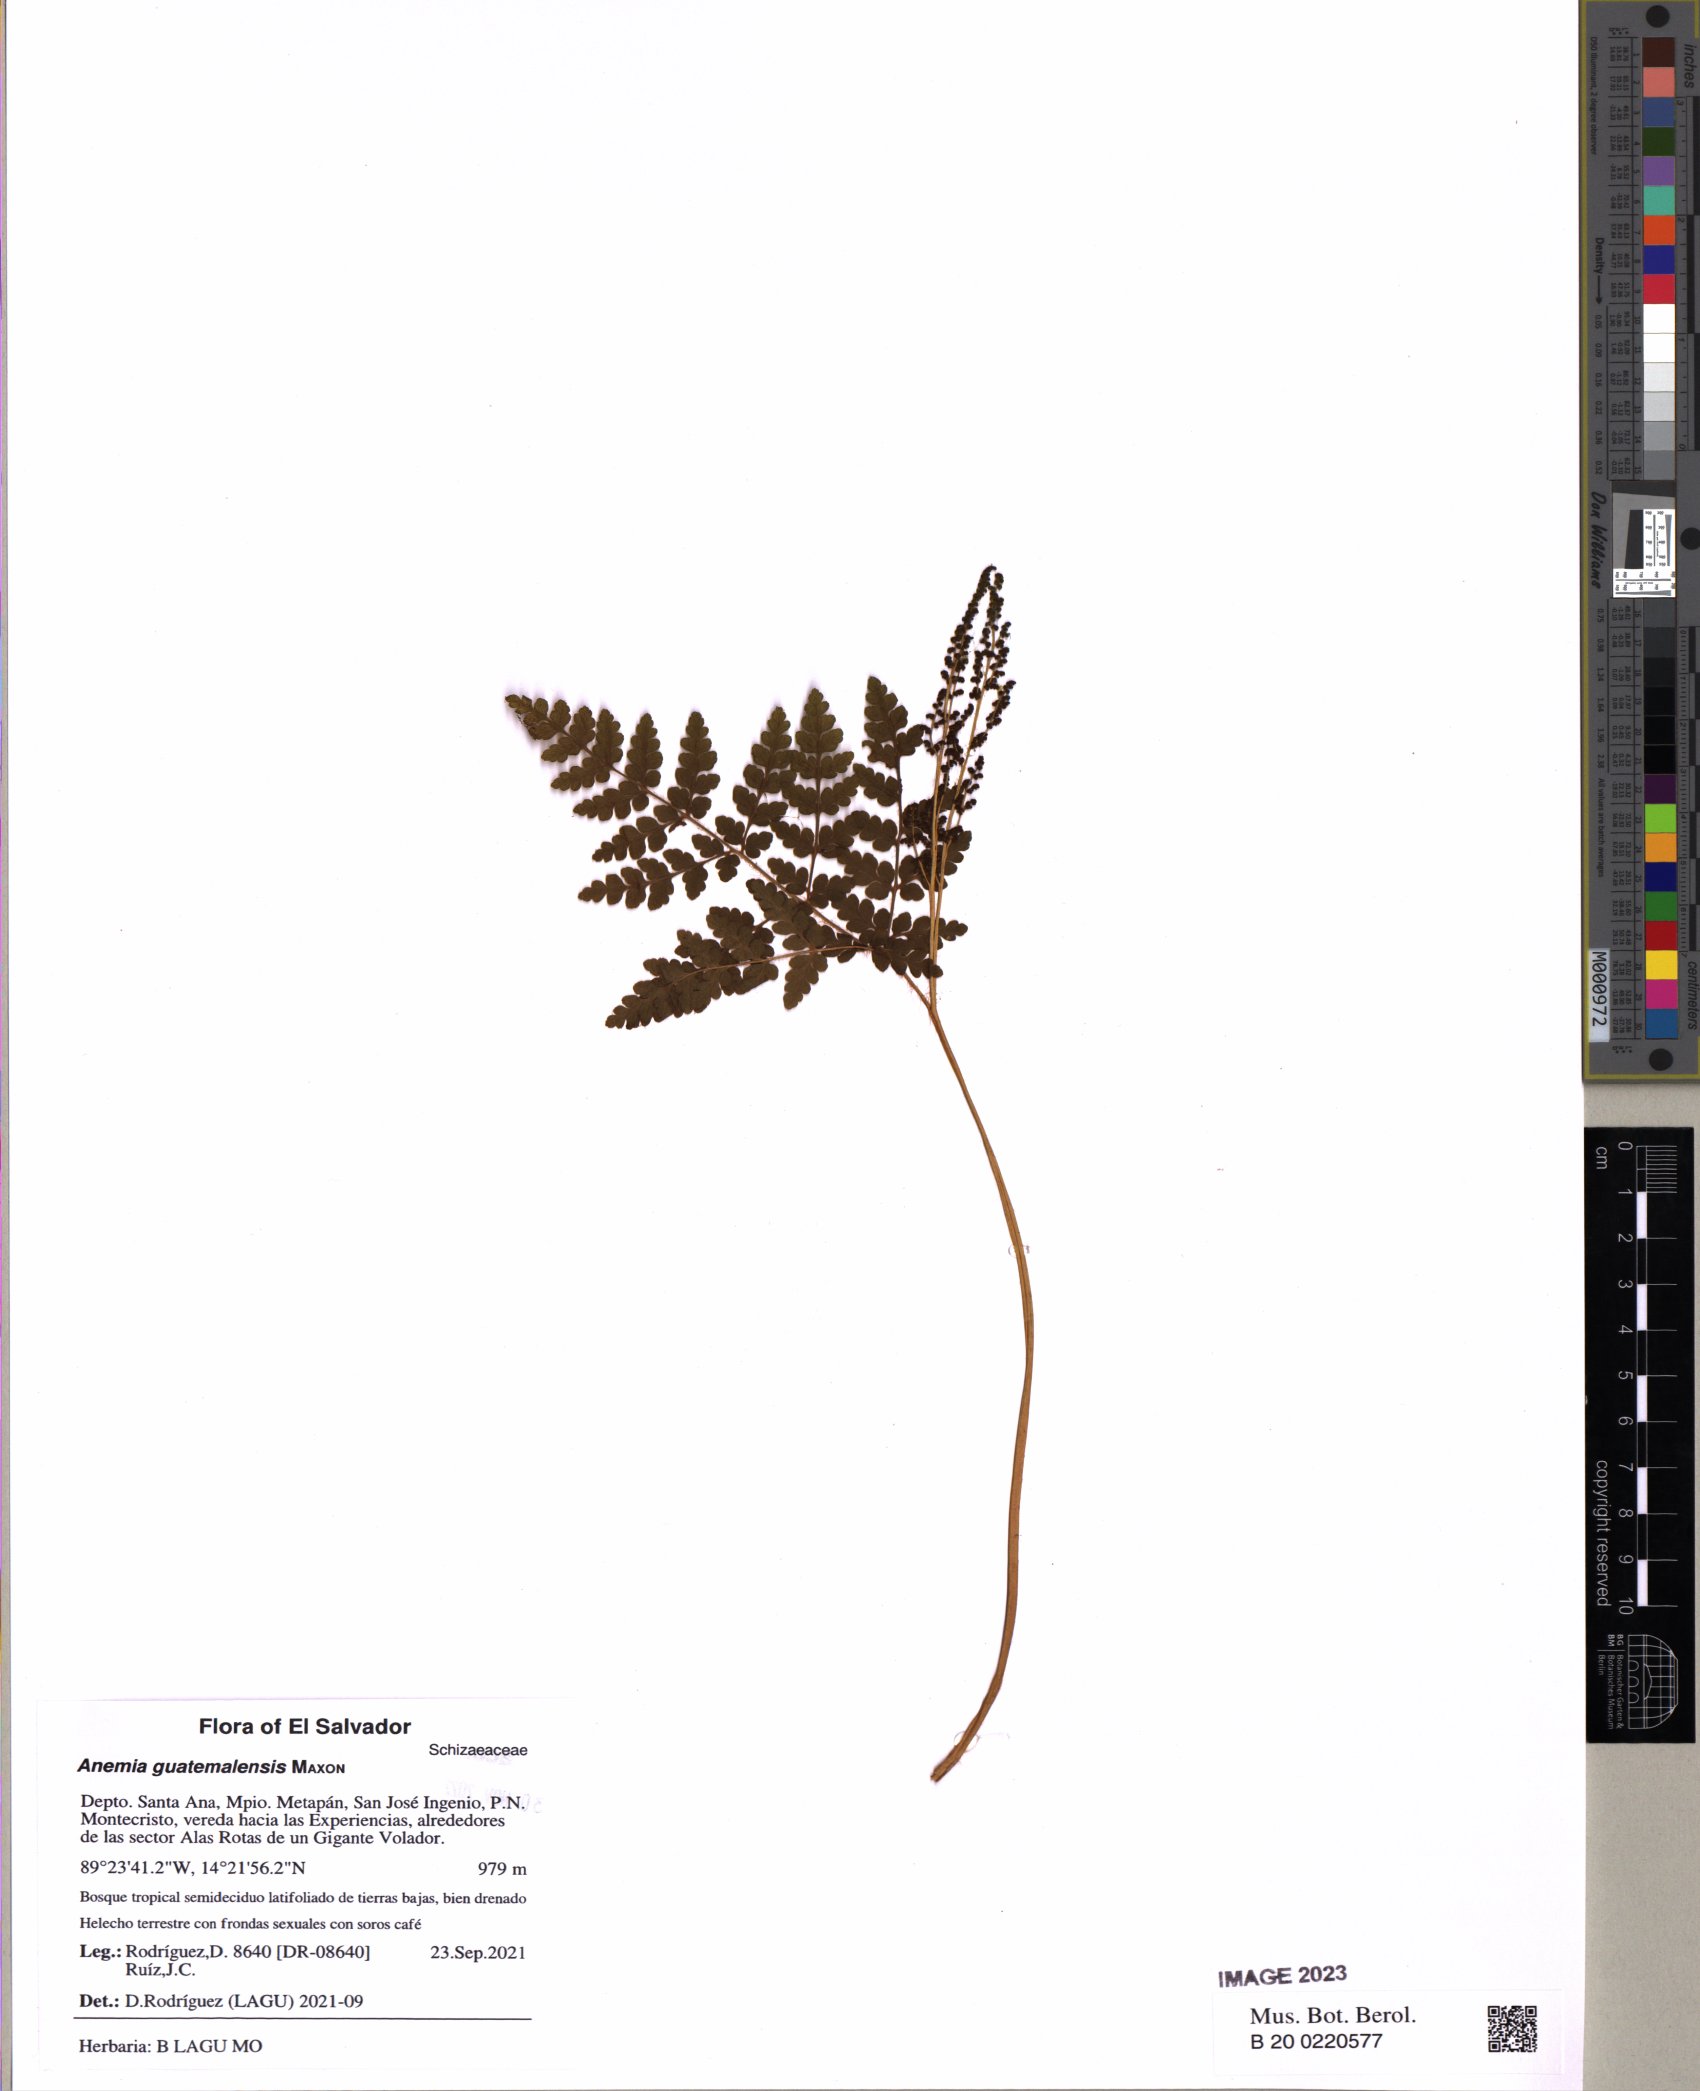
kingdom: Plantae
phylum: Tracheophyta
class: Polypodiopsida
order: Schizaeales
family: Anemiaceae
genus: Anemia
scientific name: Anemia guatemalensis
